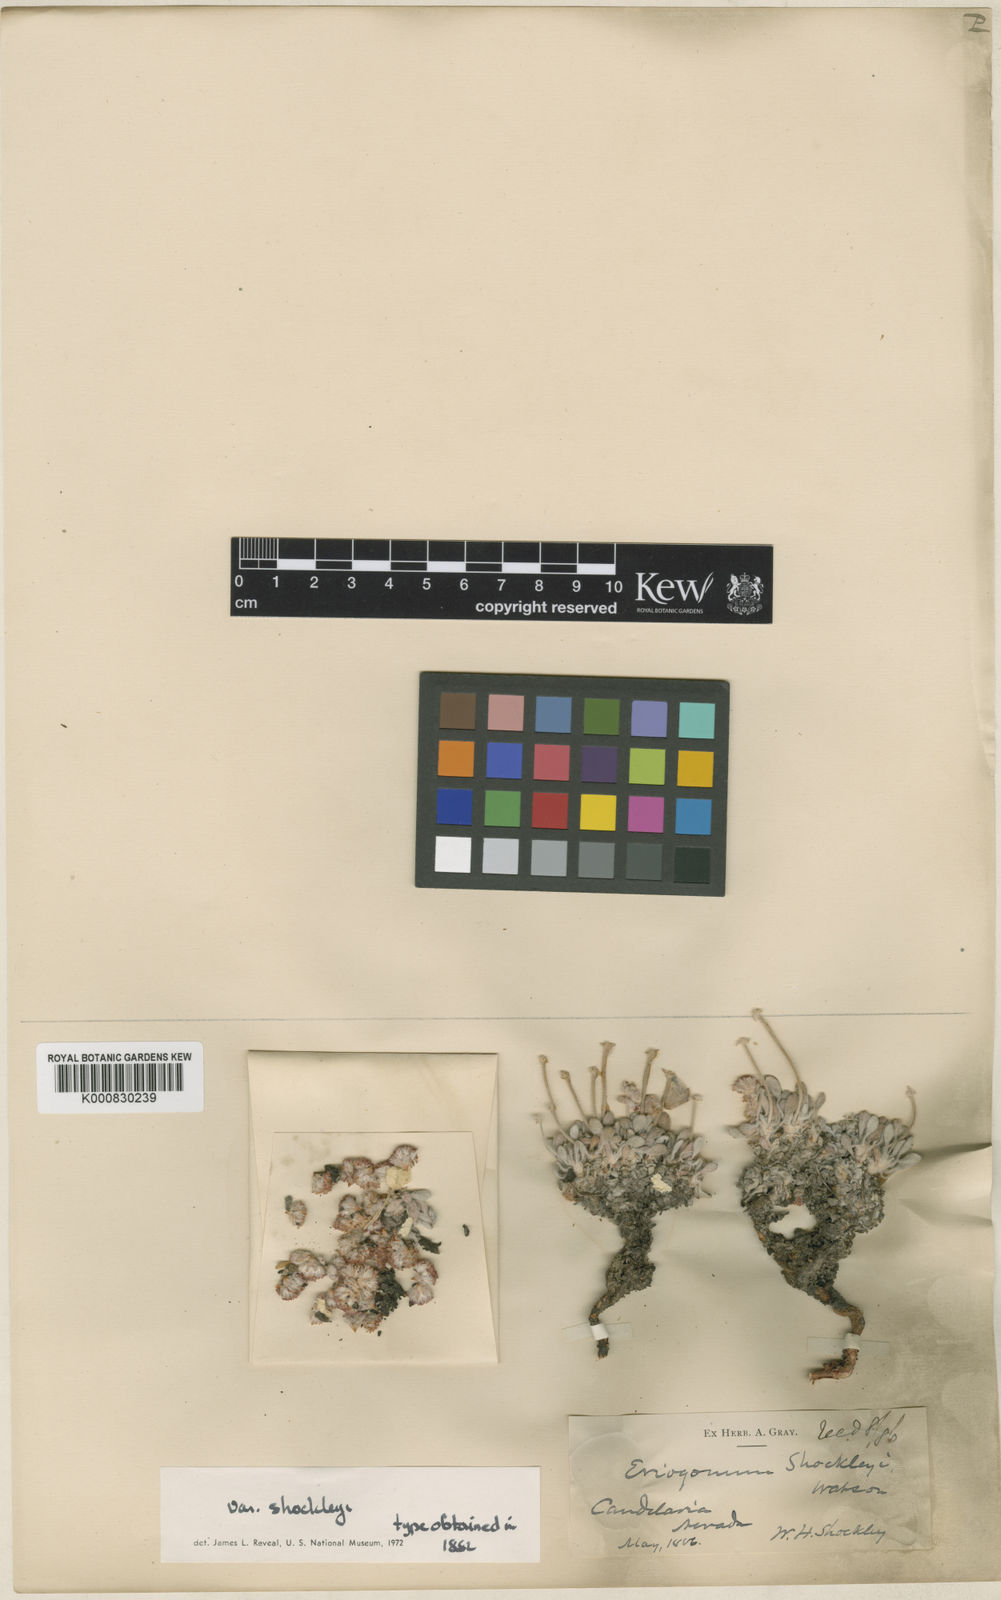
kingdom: Plantae
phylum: Tracheophyta
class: Magnoliopsida
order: Caryophyllales
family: Polygonaceae
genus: Eriogonum
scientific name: Eriogonum shockleyi
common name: Shockley's wild buckwheat
